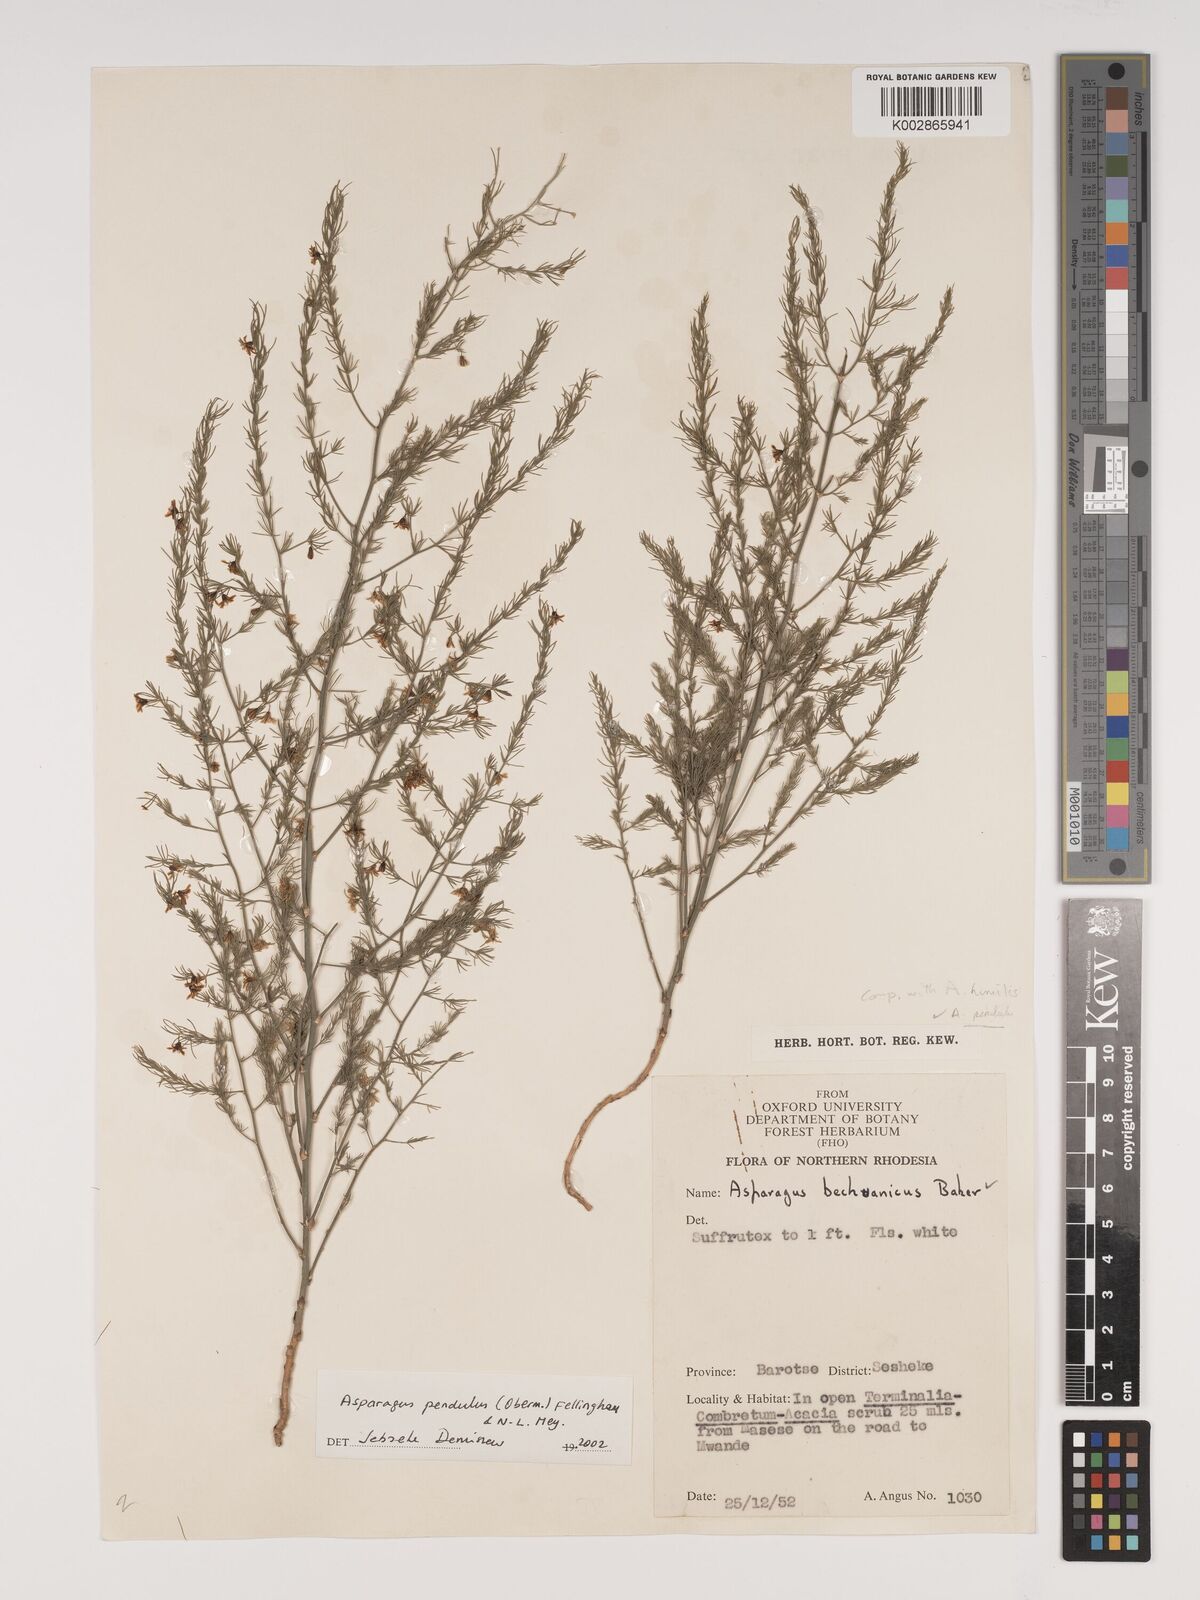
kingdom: Plantae
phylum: Tracheophyta
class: Liliopsida
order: Asparagales
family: Asparagaceae
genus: Asparagus
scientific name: Asparagus pendulus
